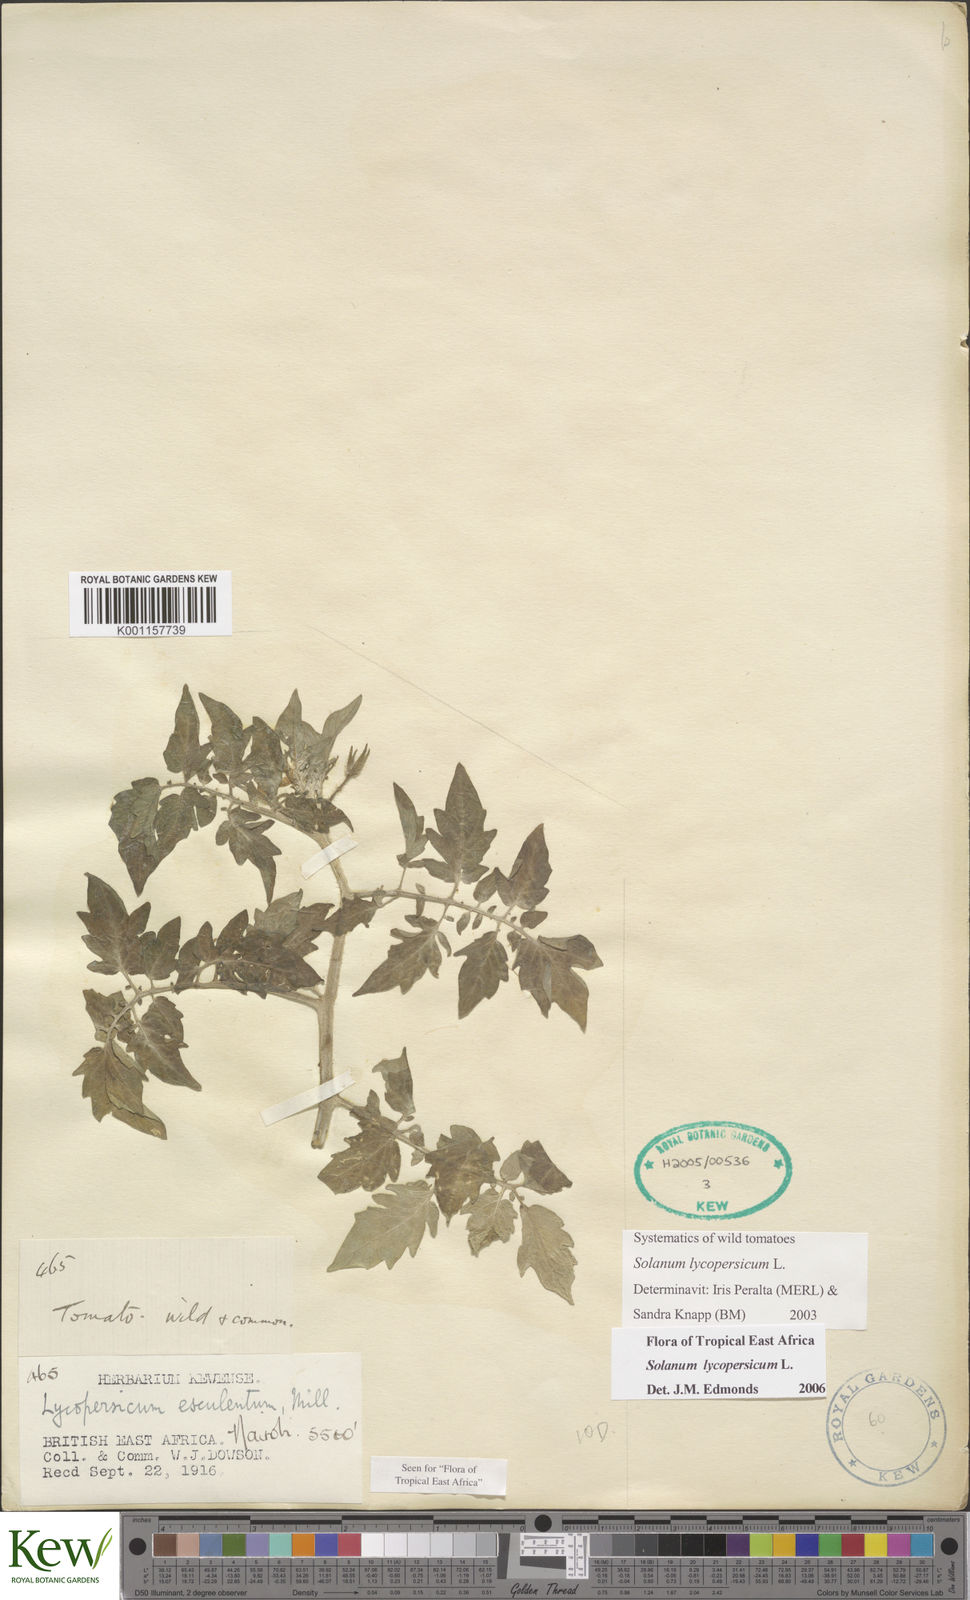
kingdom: Plantae
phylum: Tracheophyta
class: Magnoliopsida
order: Solanales
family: Solanaceae
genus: Solanum
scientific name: Solanum lycopersicum
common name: Garden tomato
